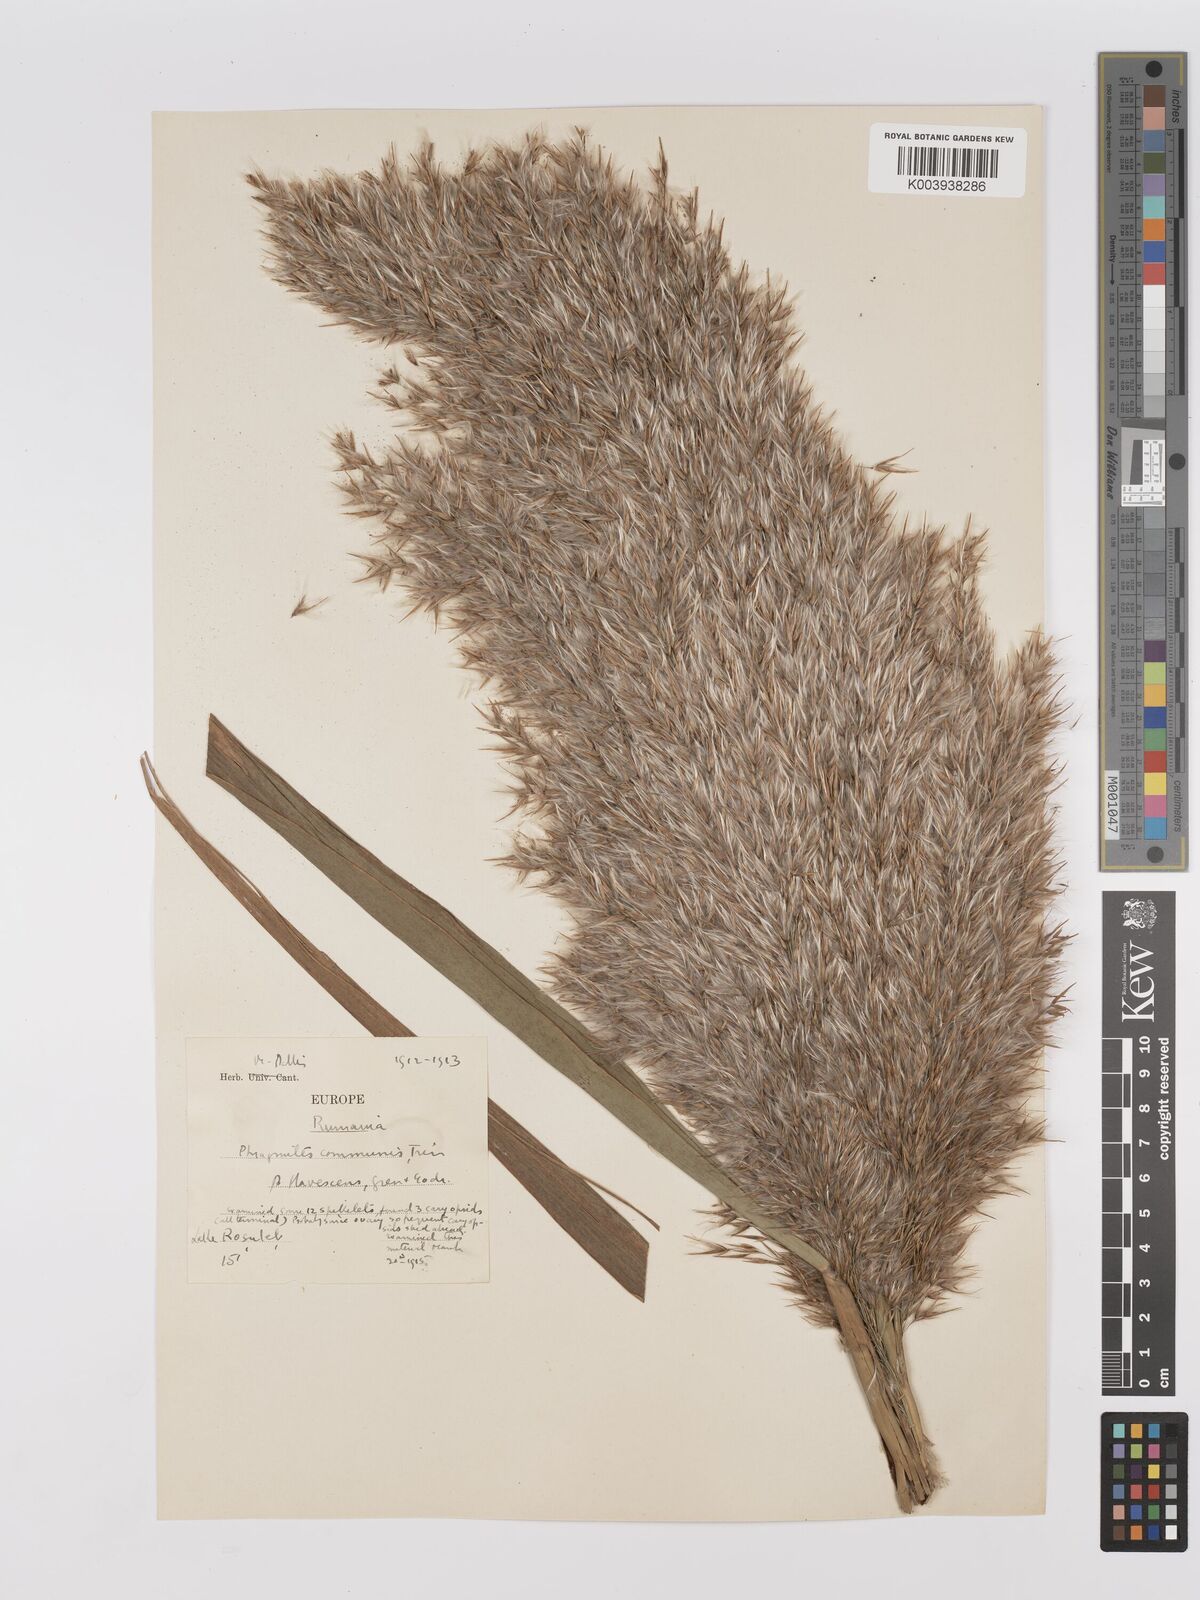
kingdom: Plantae
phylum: Tracheophyta
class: Liliopsida
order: Poales
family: Poaceae
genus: Phragmites
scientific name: Phragmites australis
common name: Common reed
